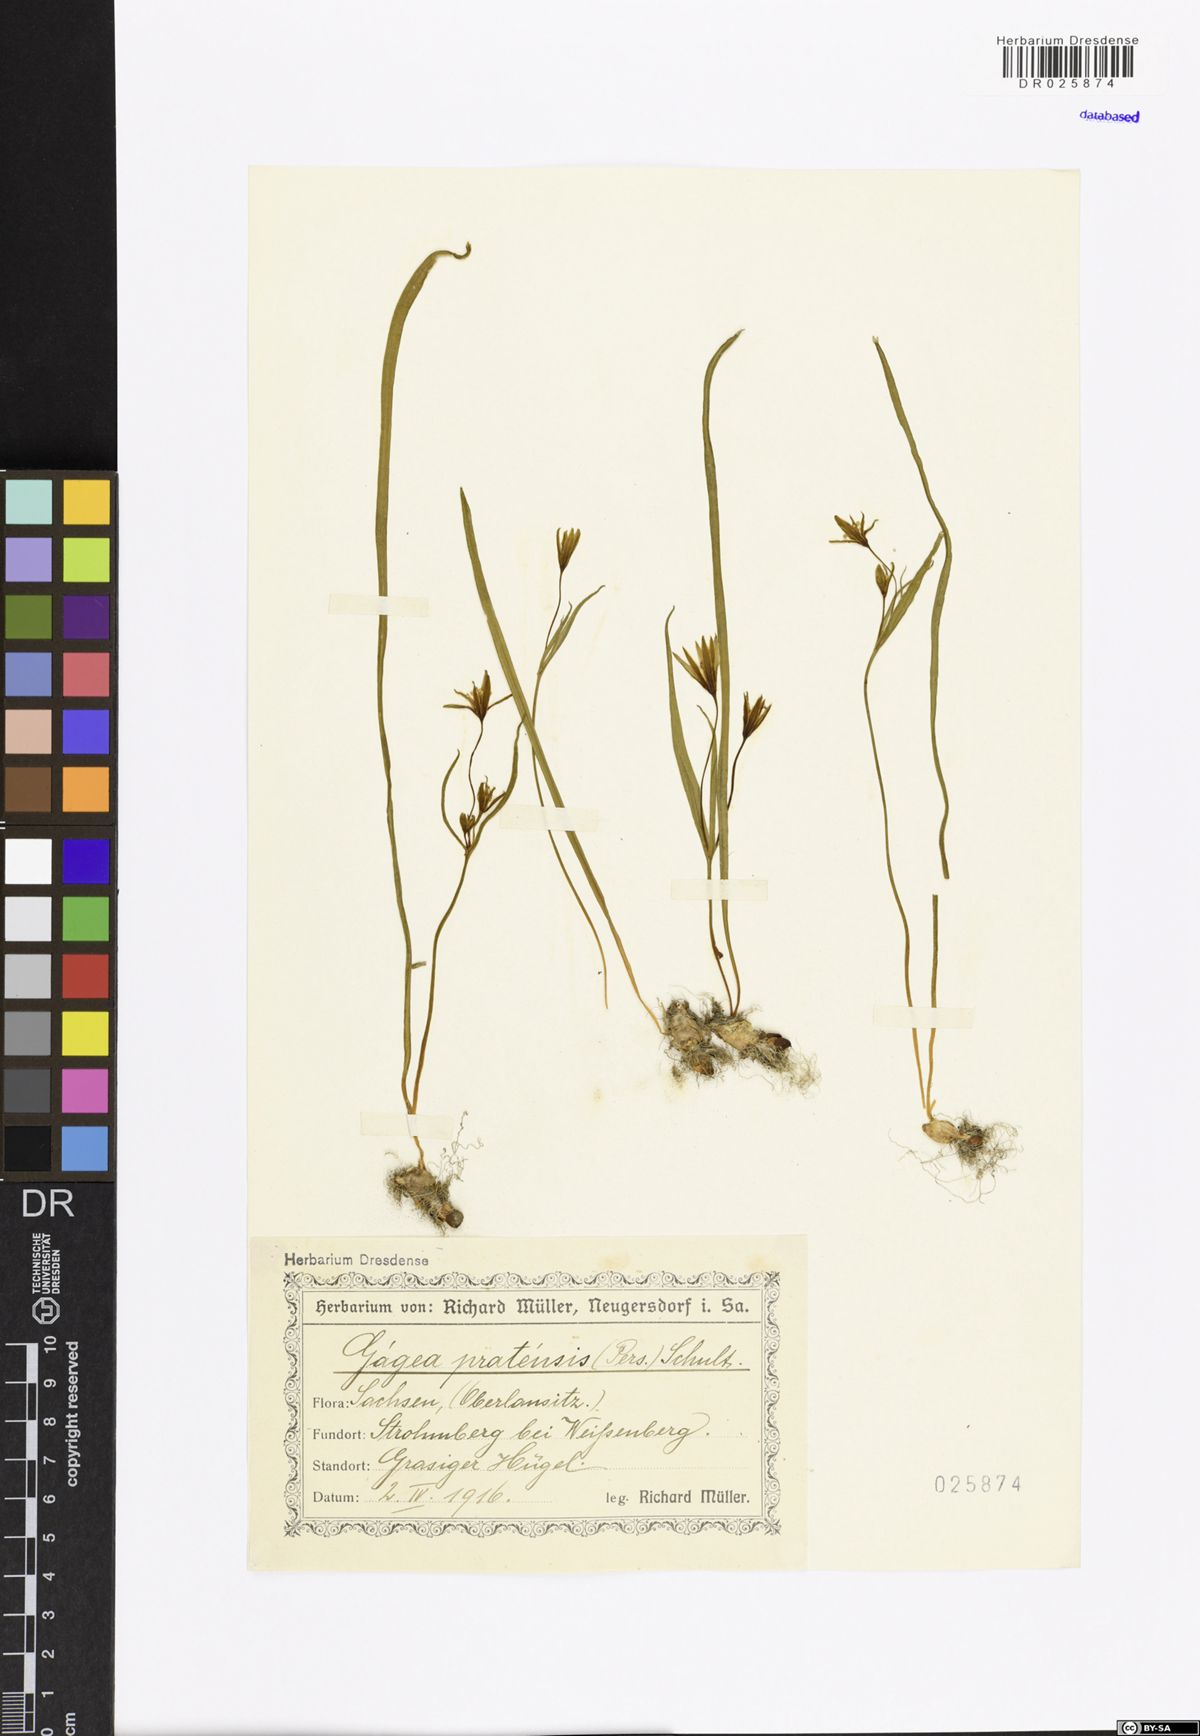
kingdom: Plantae
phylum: Tracheophyta
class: Liliopsida
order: Liliales
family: Liliaceae
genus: Gagea
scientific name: Gagea pratensis
